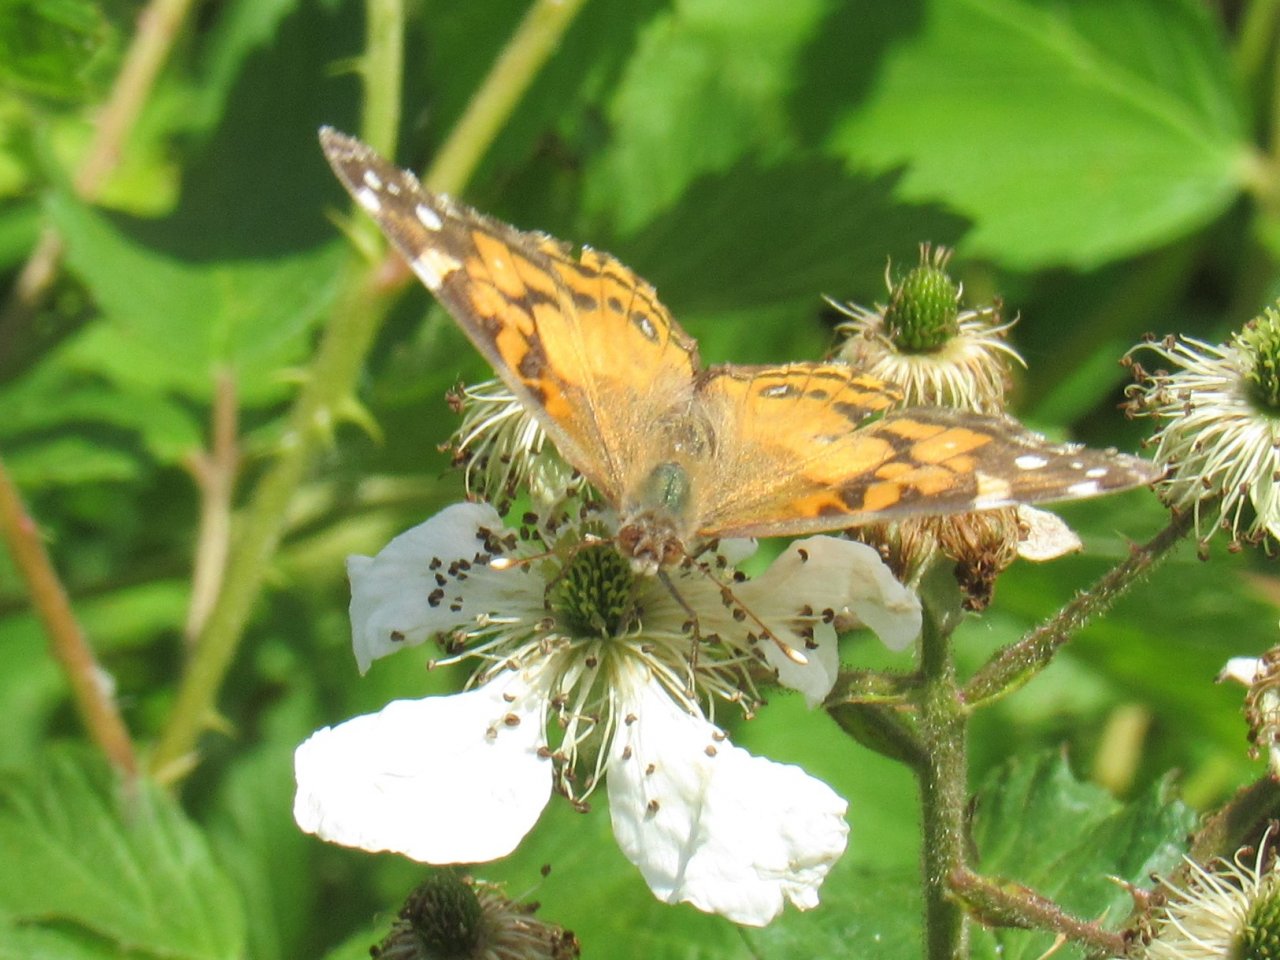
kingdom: Animalia
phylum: Arthropoda
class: Insecta
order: Lepidoptera
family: Nymphalidae
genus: Vanessa
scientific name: Vanessa virginiensis
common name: American Lady
